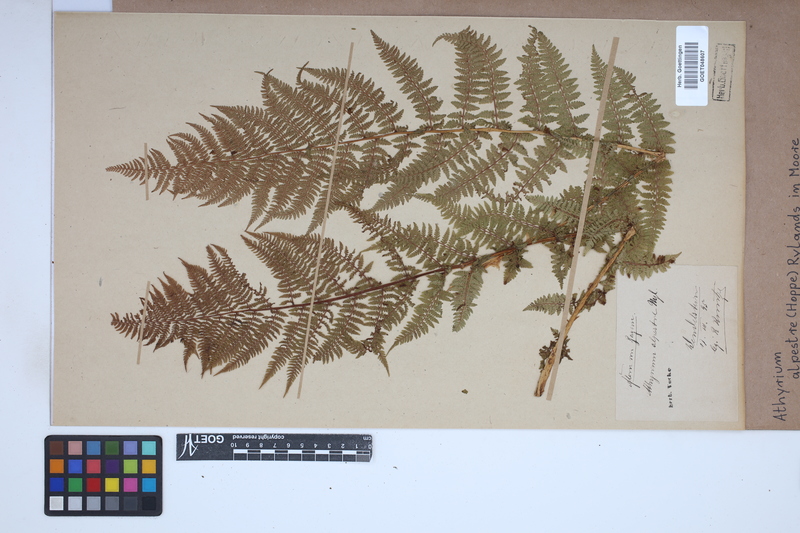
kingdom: Plantae
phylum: Tracheophyta
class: Polypodiopsida
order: Polypodiales
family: Athyriaceae
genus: Pseudathyrium
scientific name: Pseudathyrium alpestre
